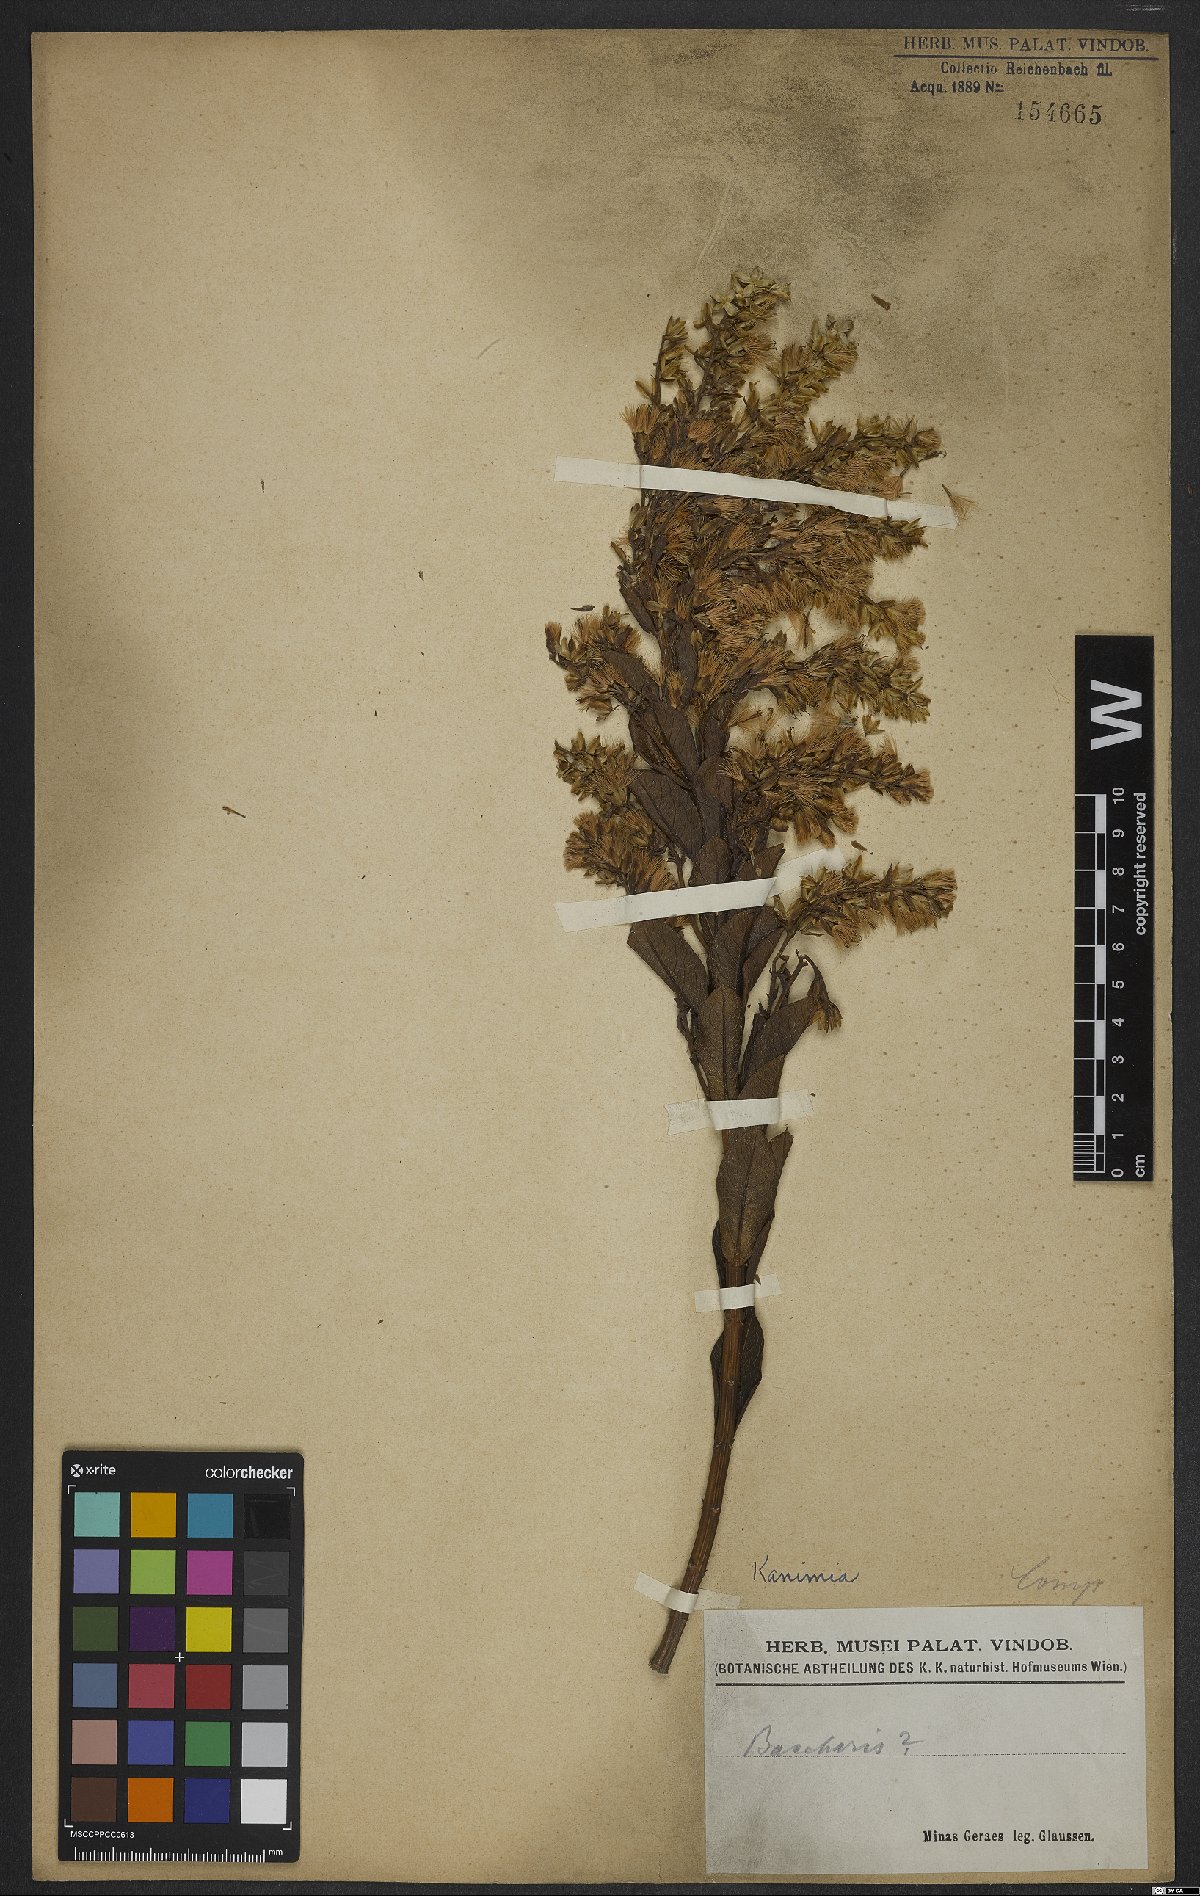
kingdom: Plantae
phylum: Tracheophyta
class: Magnoliopsida
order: Asterales
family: Asteraceae
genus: Mikania
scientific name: Mikania oblongifolia
